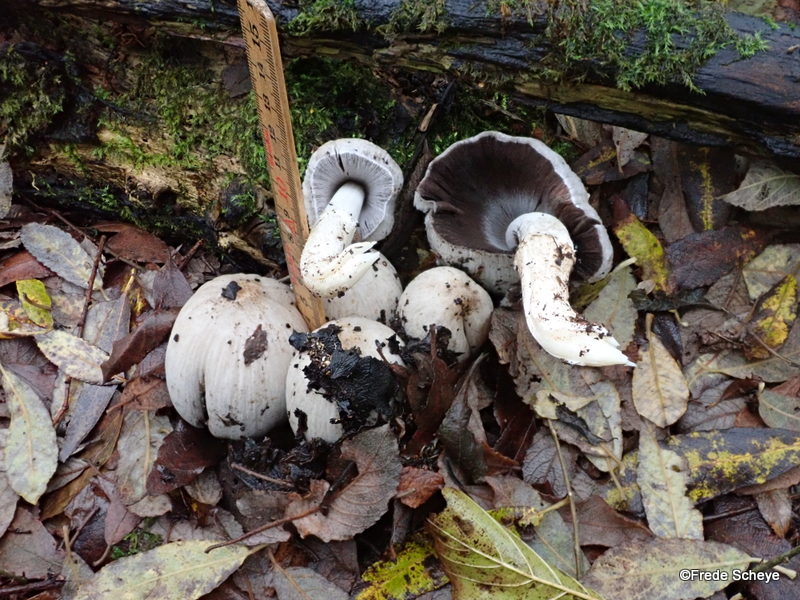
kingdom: Fungi
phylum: Basidiomycota
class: Agaricomycetes
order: Agaricales
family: Psathyrellaceae
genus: Coprinopsis
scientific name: Coprinopsis atramentaria
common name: almindelig blækhat
